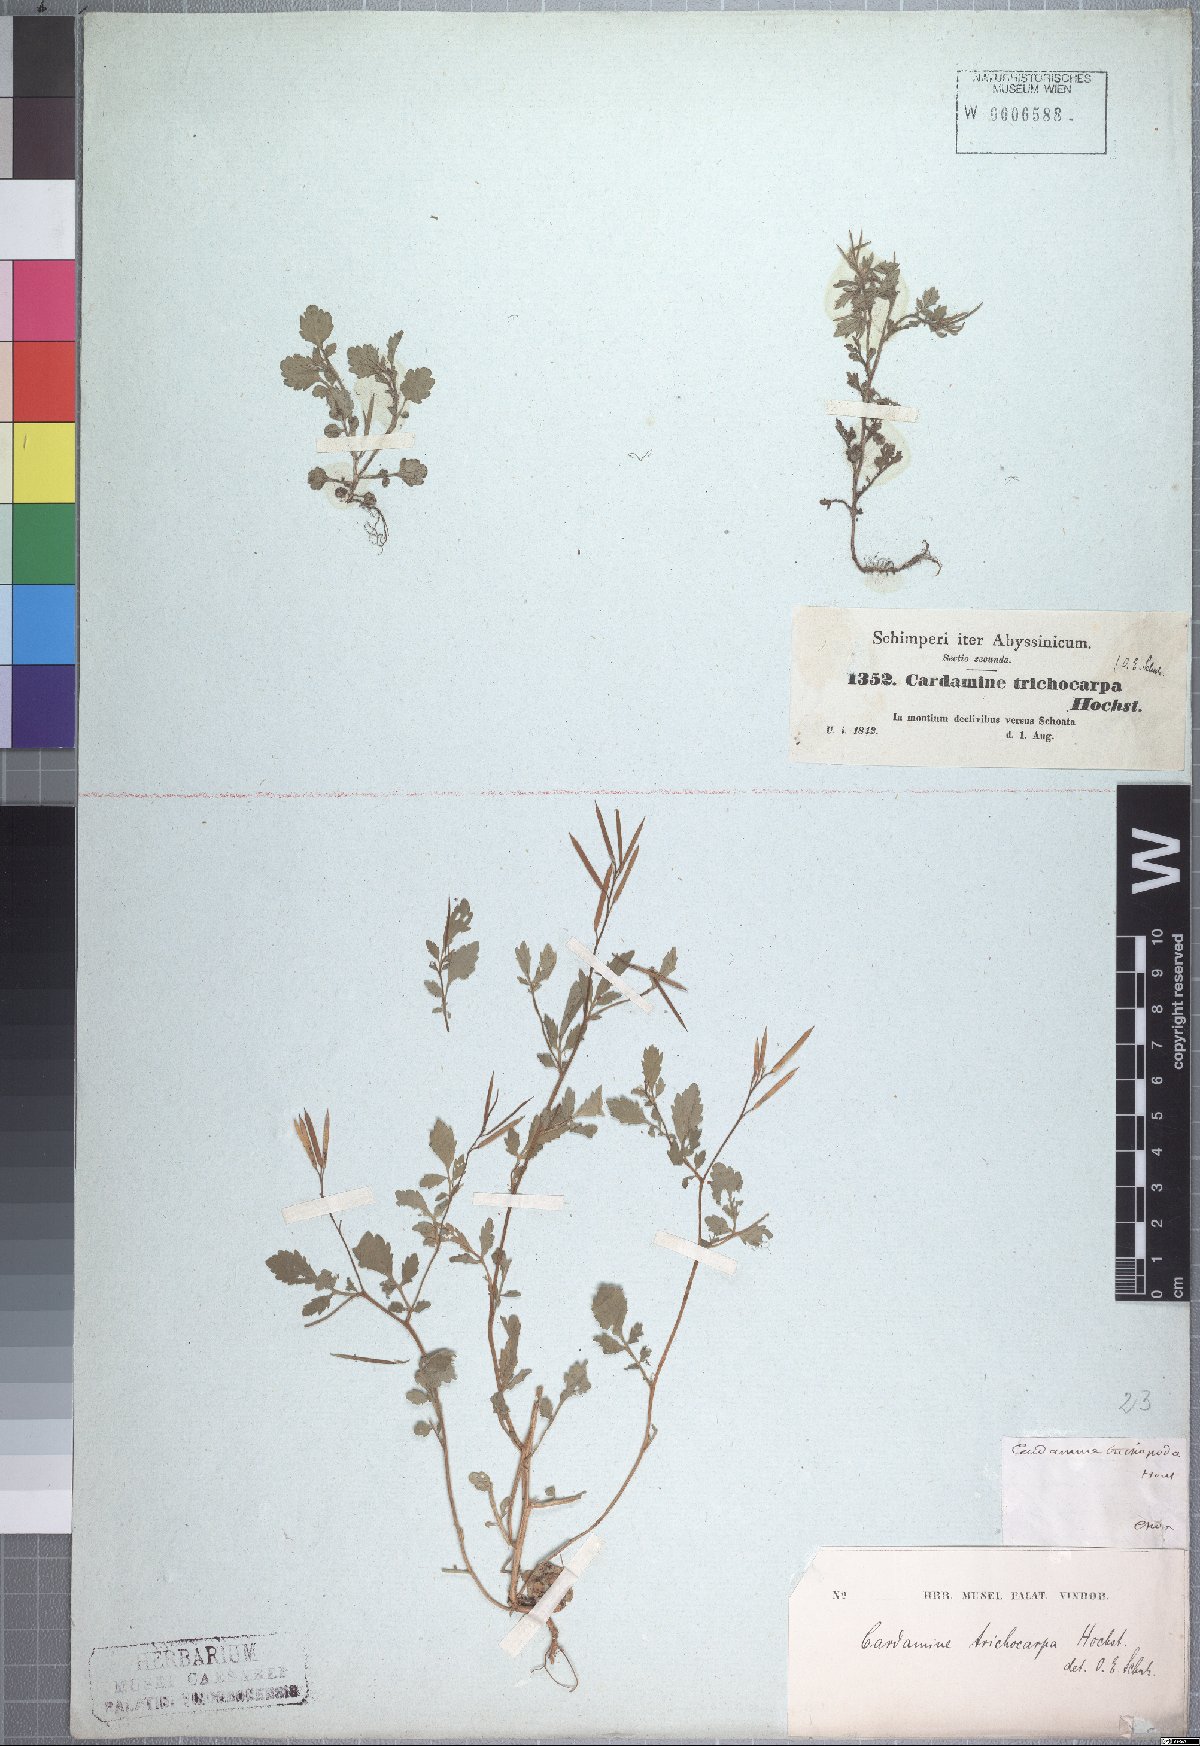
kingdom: Plantae
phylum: Tracheophyta
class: Magnoliopsida
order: Brassicales
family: Brassicaceae
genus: Cardamine
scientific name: Cardamine trichocarpa
